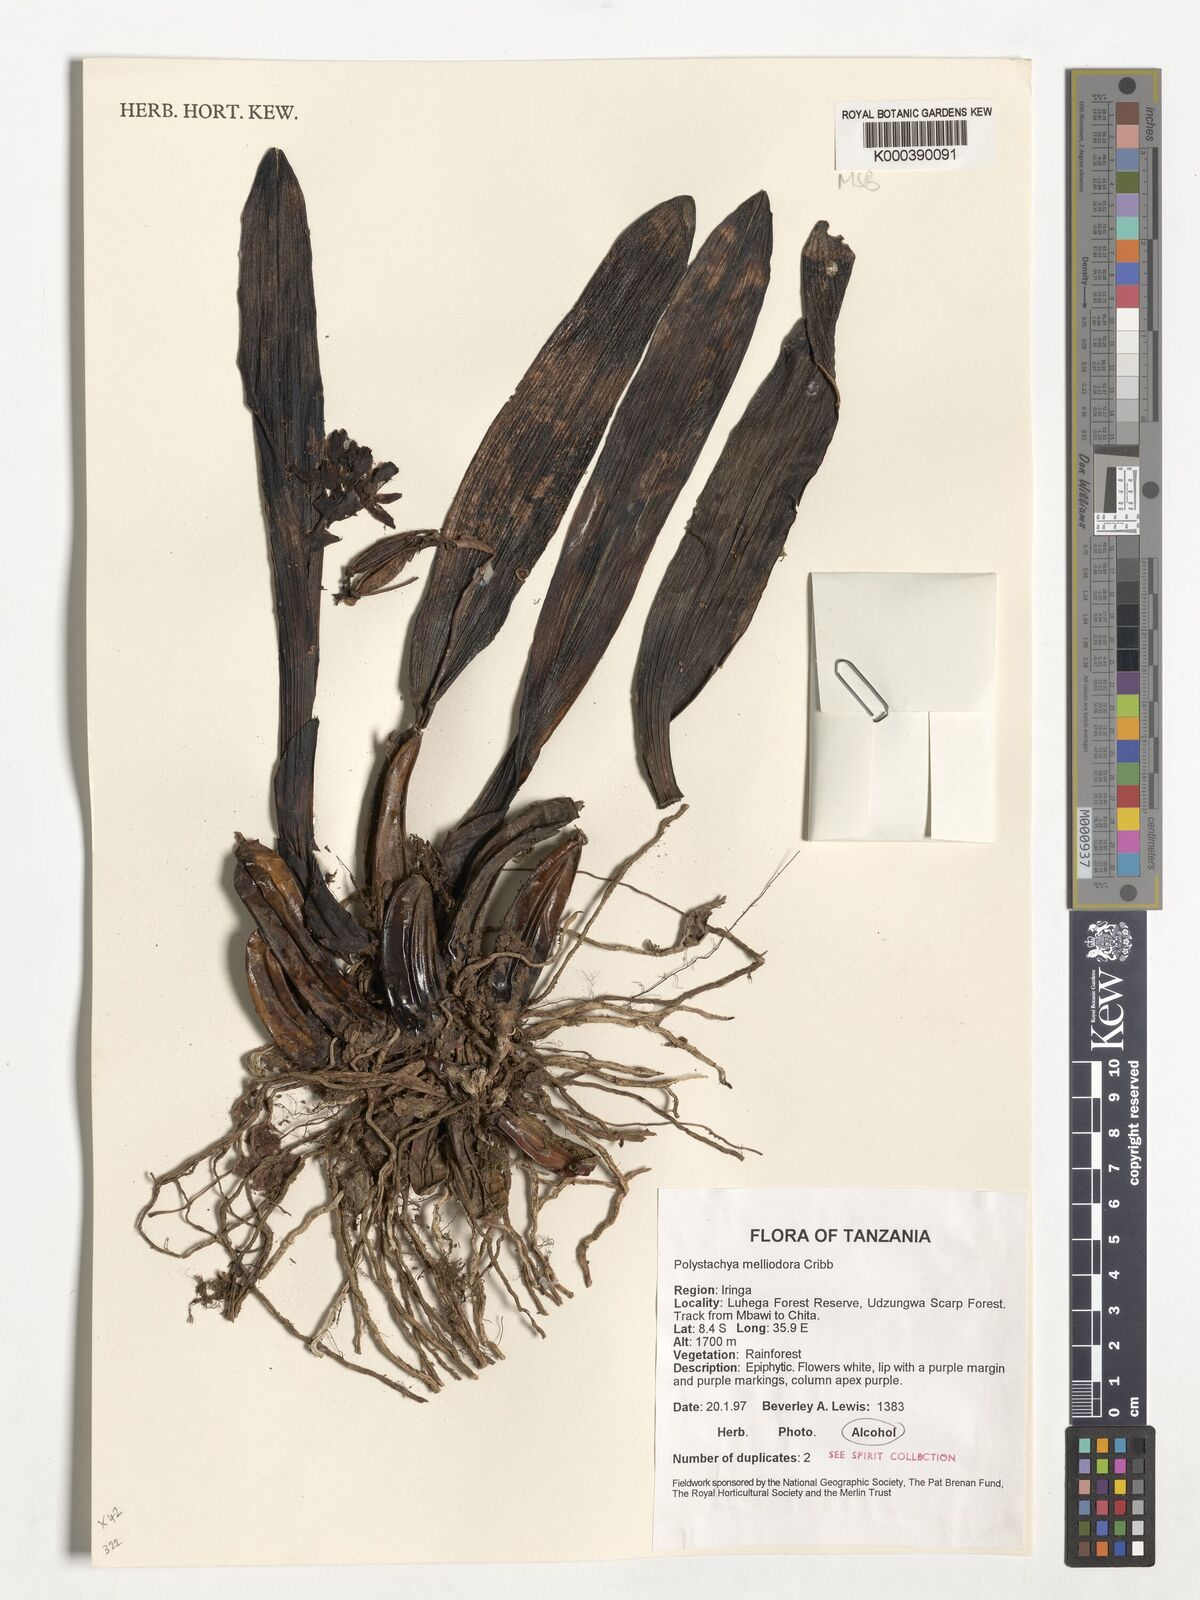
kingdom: Plantae
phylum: Tracheophyta
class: Liliopsida
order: Asparagales
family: Orchidaceae
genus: Polystachya
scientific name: Polystachya melliodora
